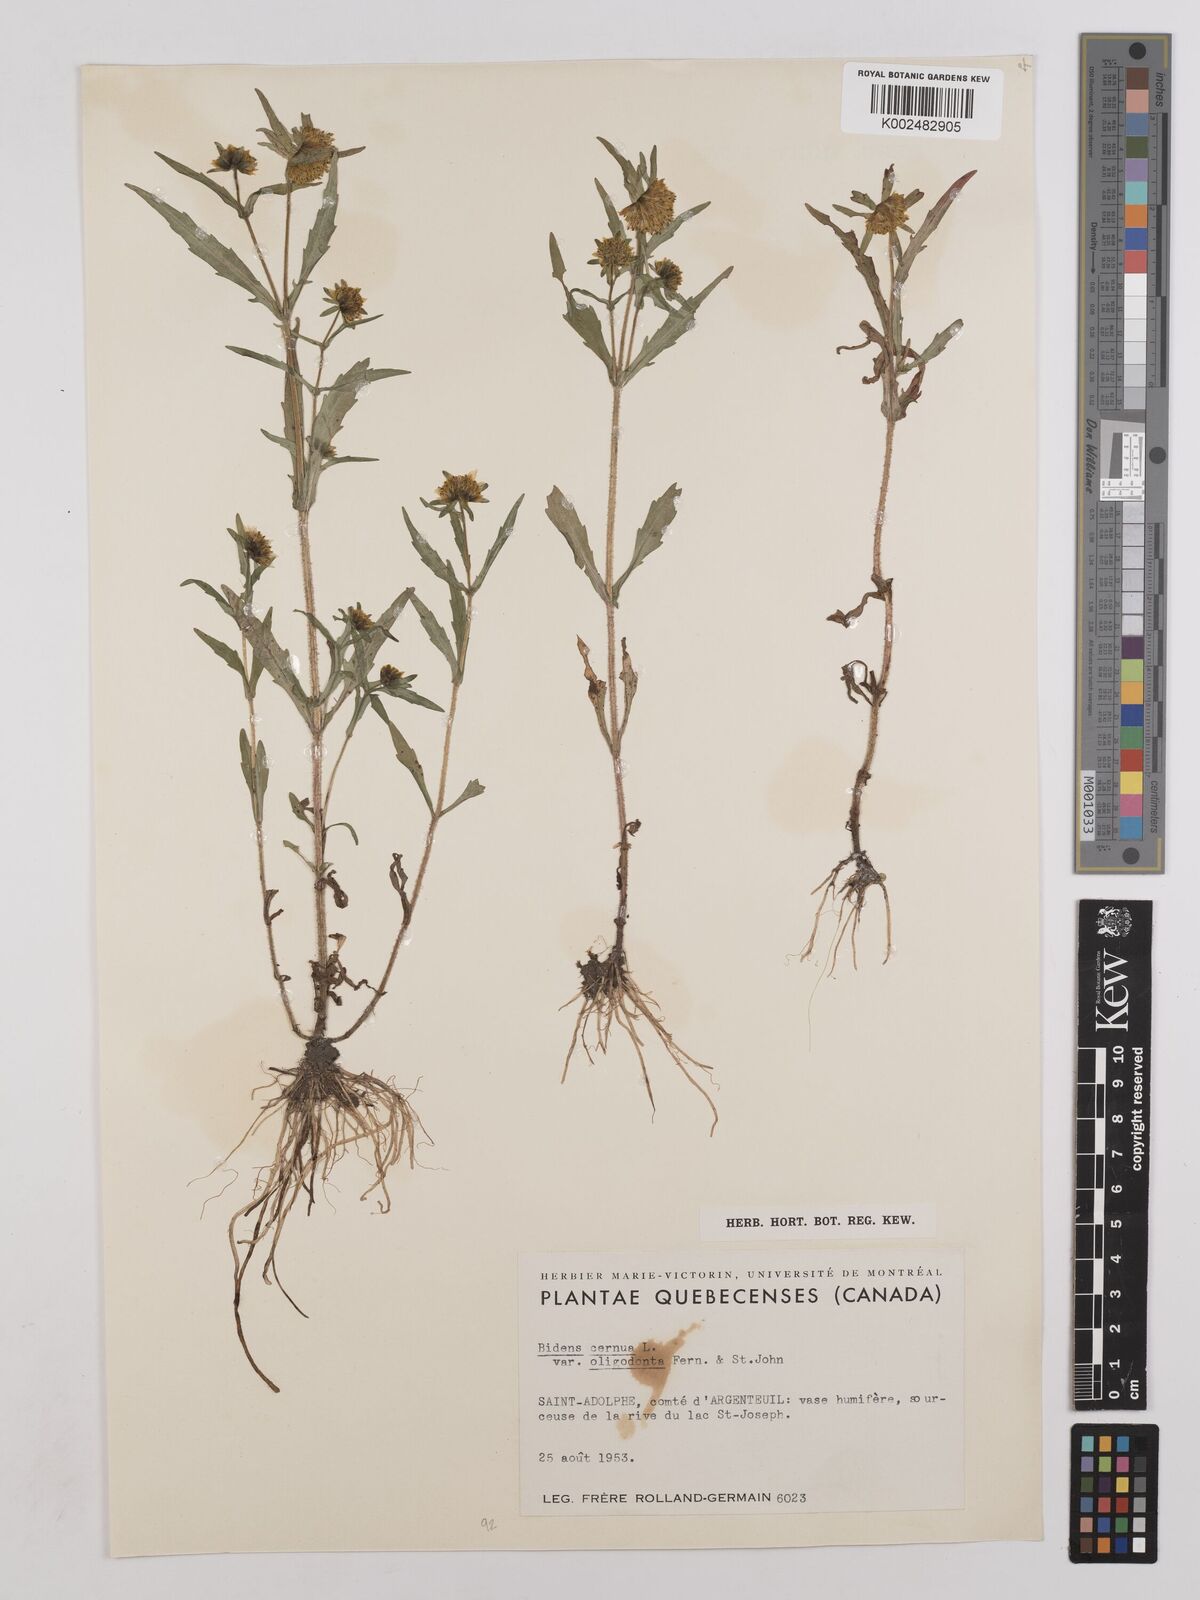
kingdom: Plantae
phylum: Tracheophyta
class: Magnoliopsida
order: Asterales
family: Asteraceae
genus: Bidens
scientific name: Bidens cernua
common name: Nodding bur-marigold
